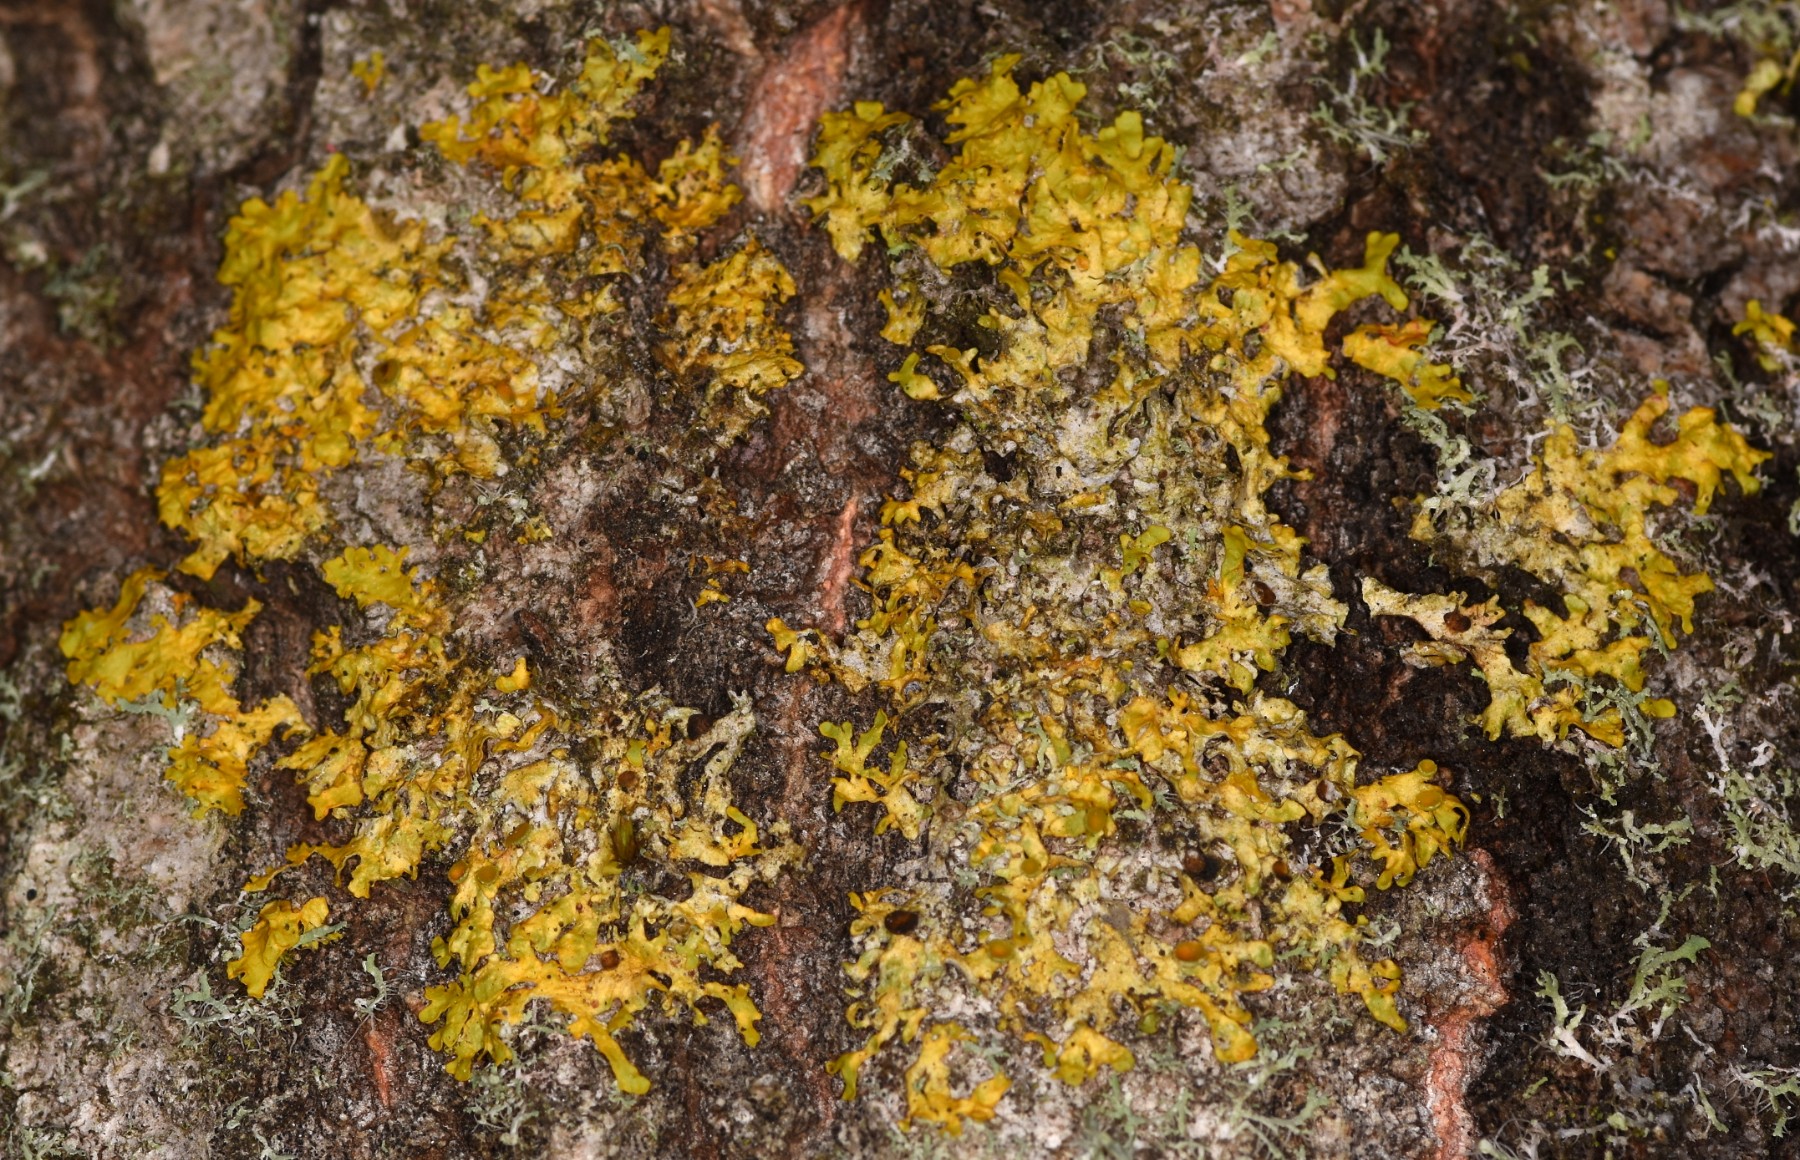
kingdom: Fungi
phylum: Ascomycota
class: Lecanoromycetes
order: Teloschistales
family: Teloschistaceae
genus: Xanthoria
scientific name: Xanthoria parietina
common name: almindelig væggelav
